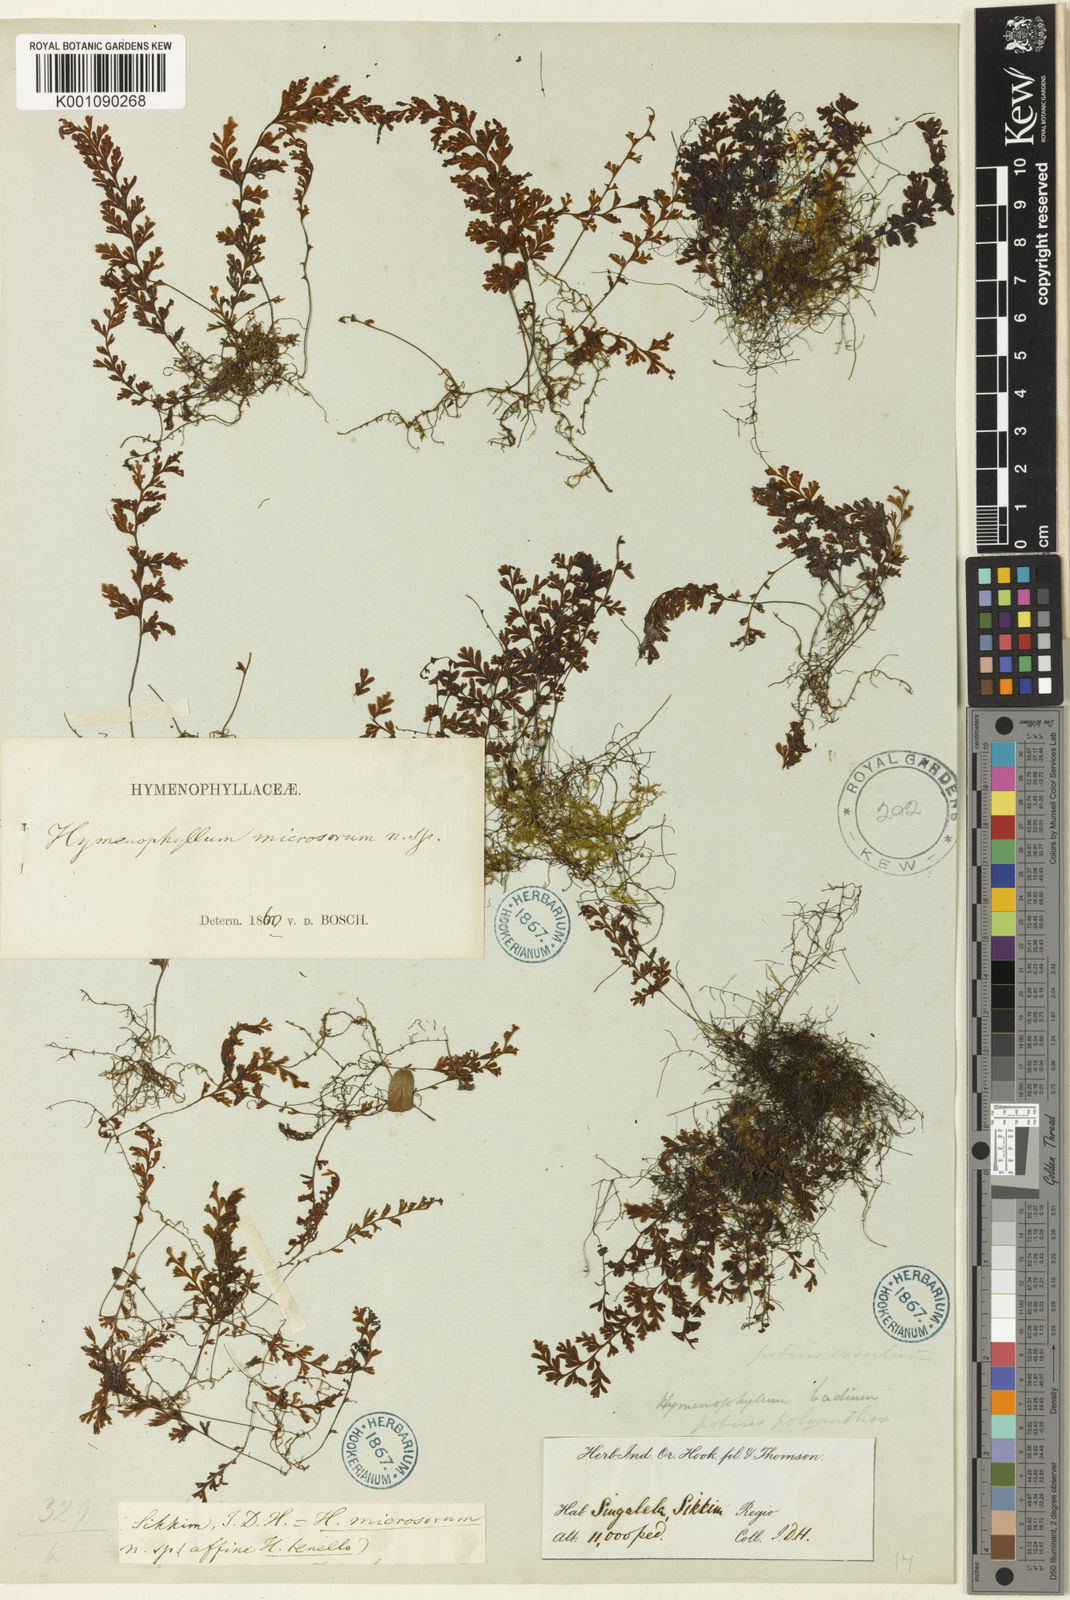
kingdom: Plantae
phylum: Tracheophyta
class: Polypodiopsida
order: Hymenophyllales
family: Hymenophyllaceae
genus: Hymenophyllum
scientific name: Hymenophyllum polyanthos
